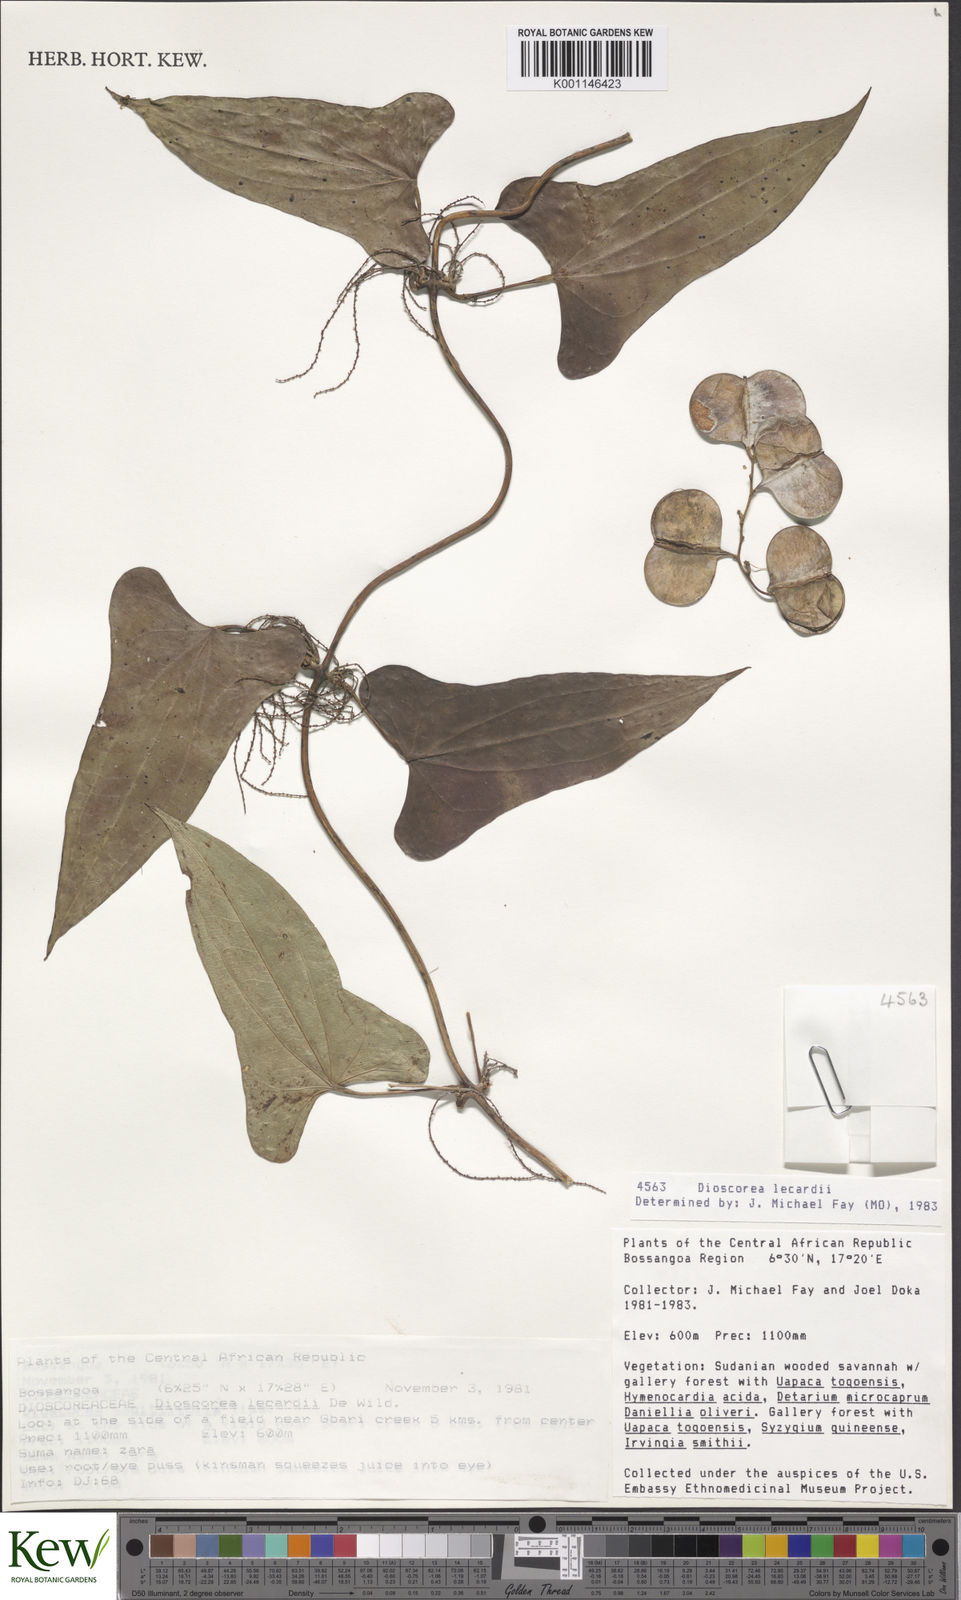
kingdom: Plantae
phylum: Tracheophyta
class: Liliopsida
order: Dioscoreales
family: Dioscoreaceae
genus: Dioscorea
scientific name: Dioscorea sagittifolia
